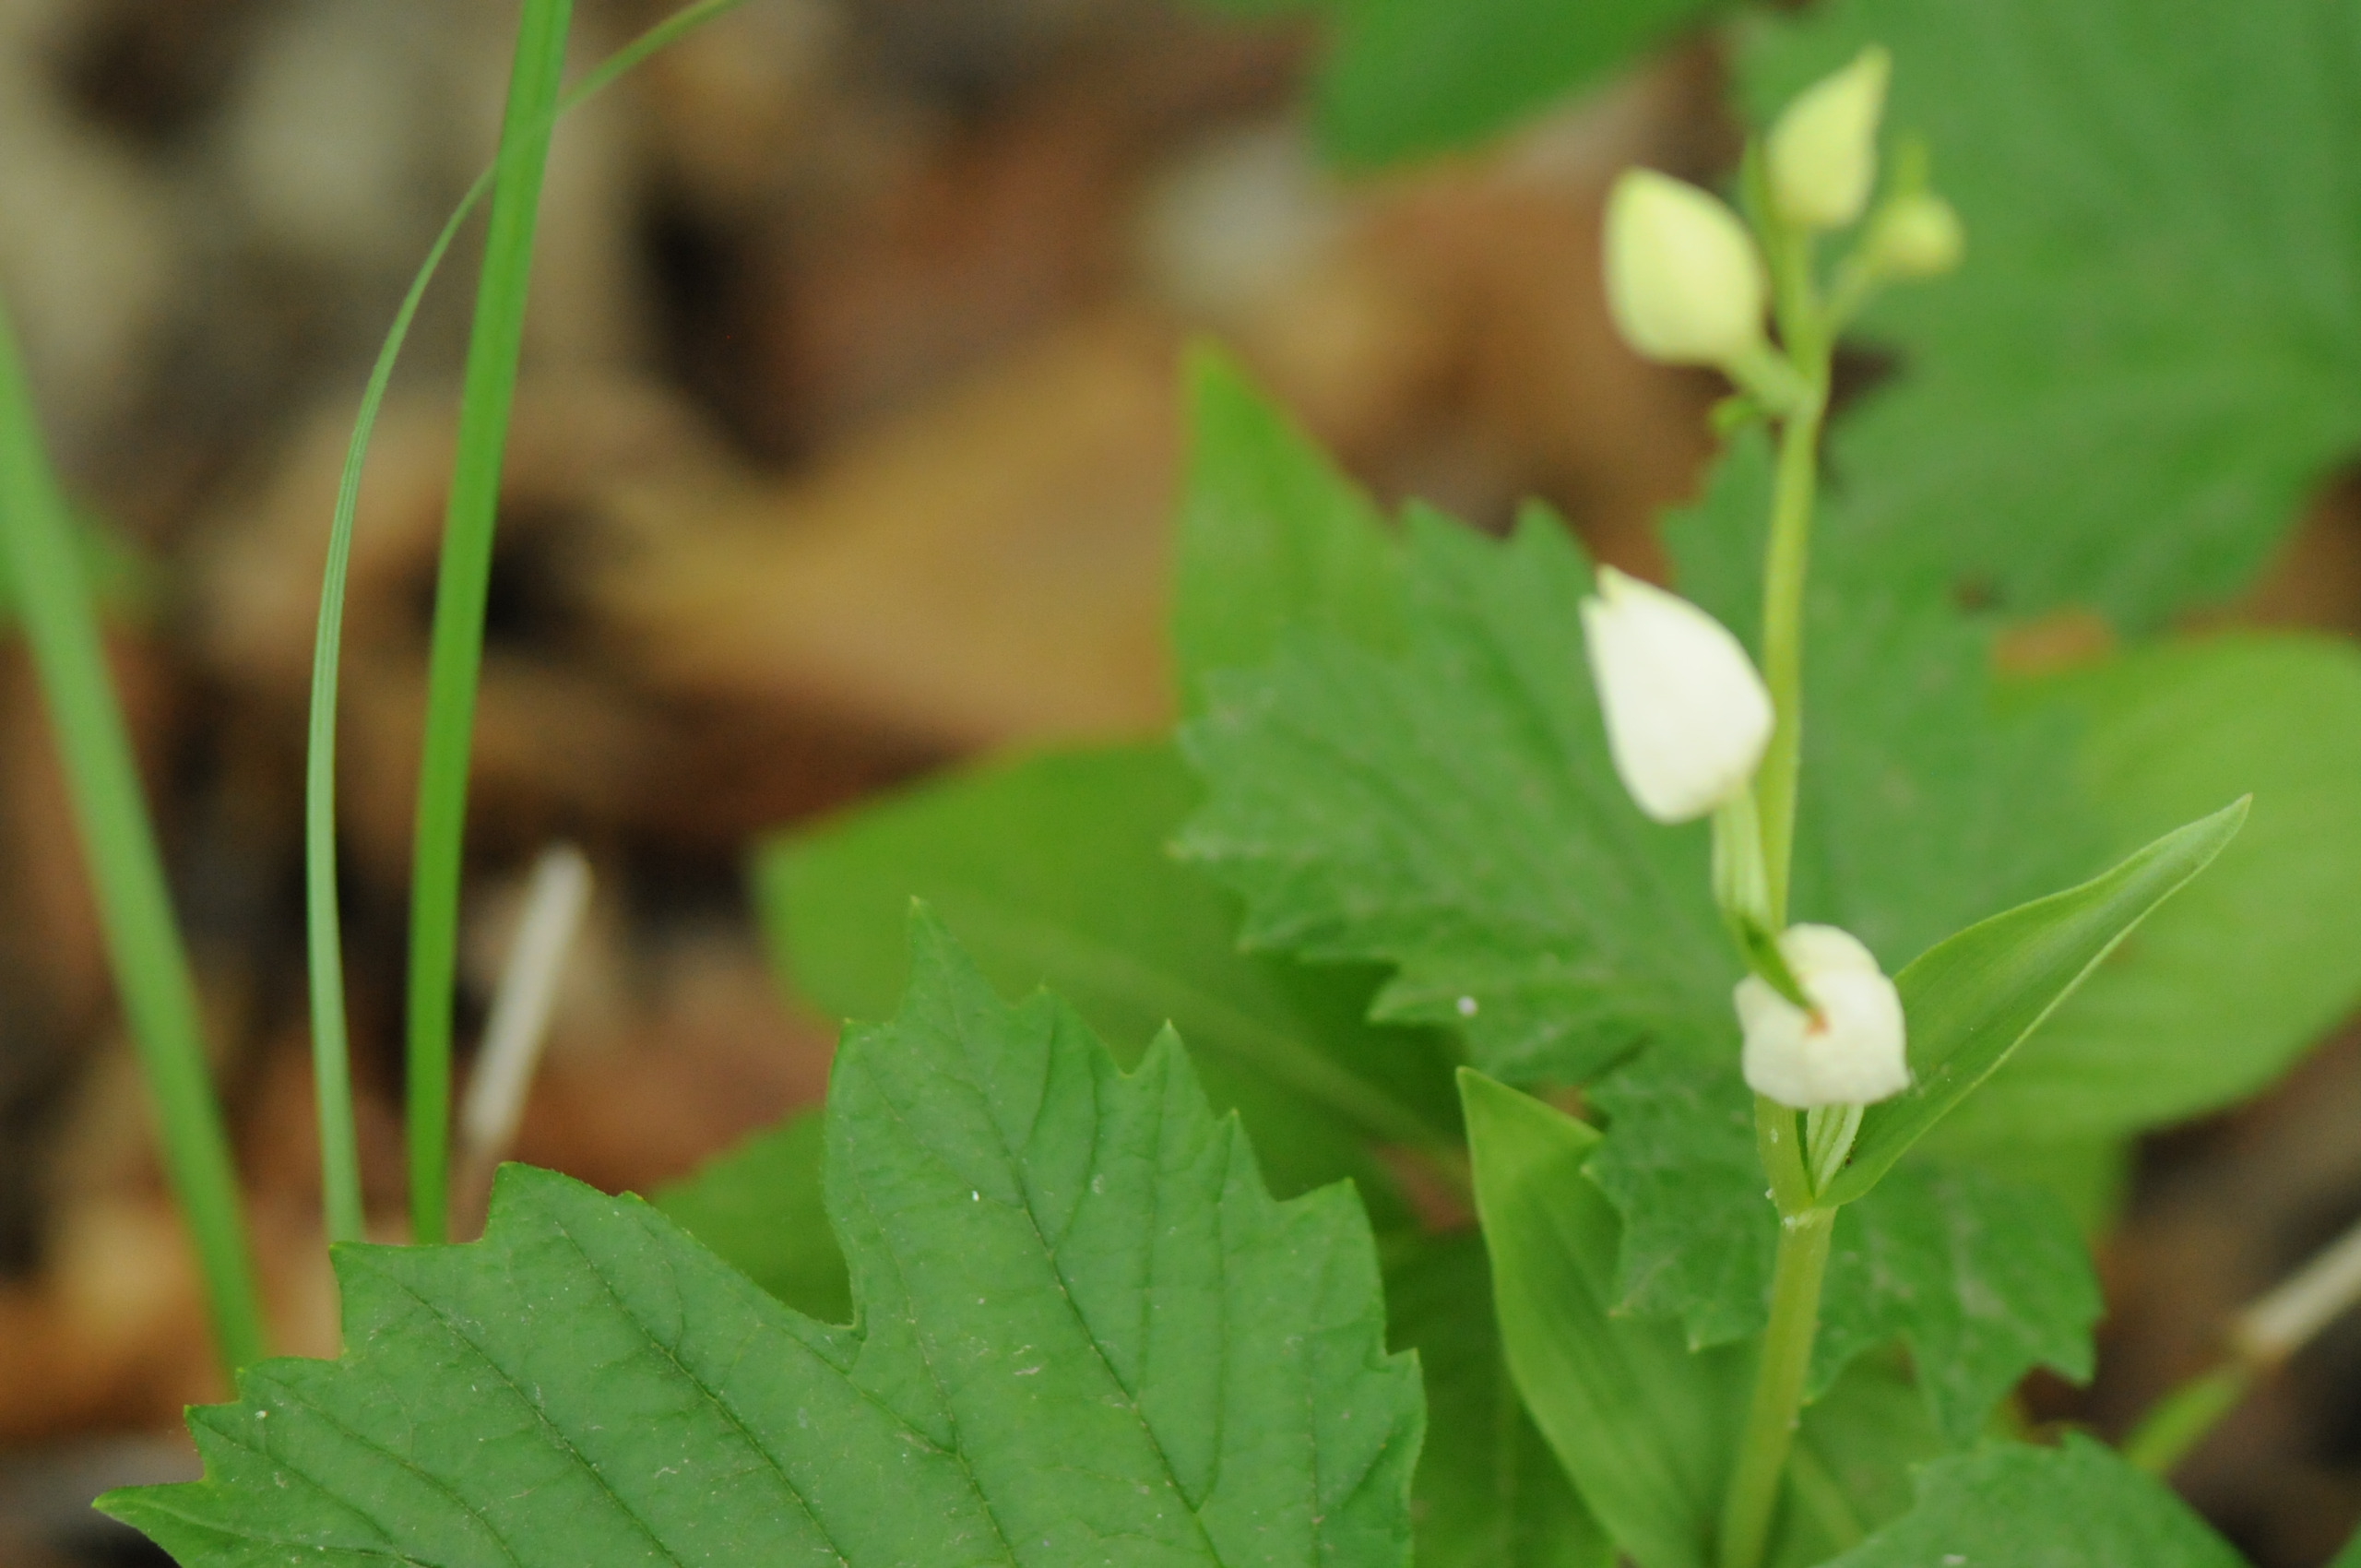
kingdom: Plantae
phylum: Tracheophyta
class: Liliopsida
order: Asparagales
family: Orchidaceae
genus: Cephalanthera
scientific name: Cephalanthera damasonium
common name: Hvidgul skovlilje
